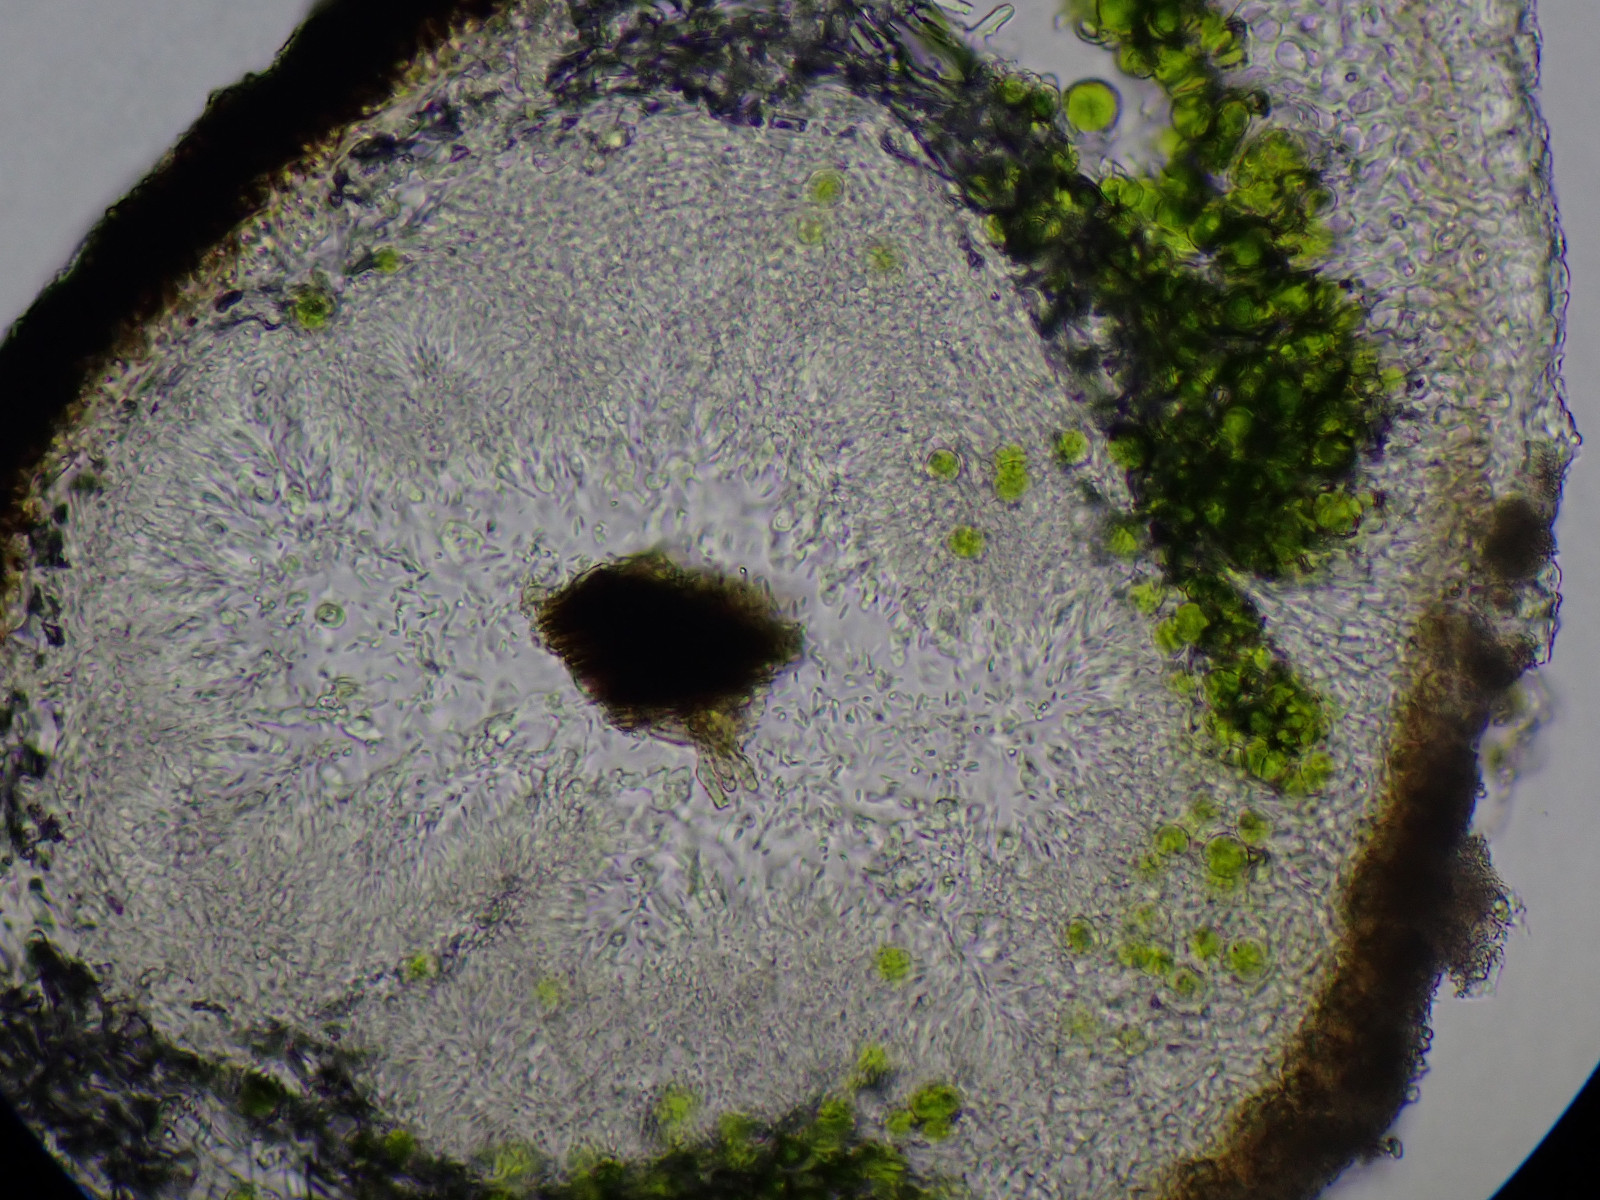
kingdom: Fungi
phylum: Ascomycota
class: Lecanoromycetes
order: Caliciales
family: Physciaceae
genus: Physconia
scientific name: Physconia distorta
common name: pudret dugrosetlav
